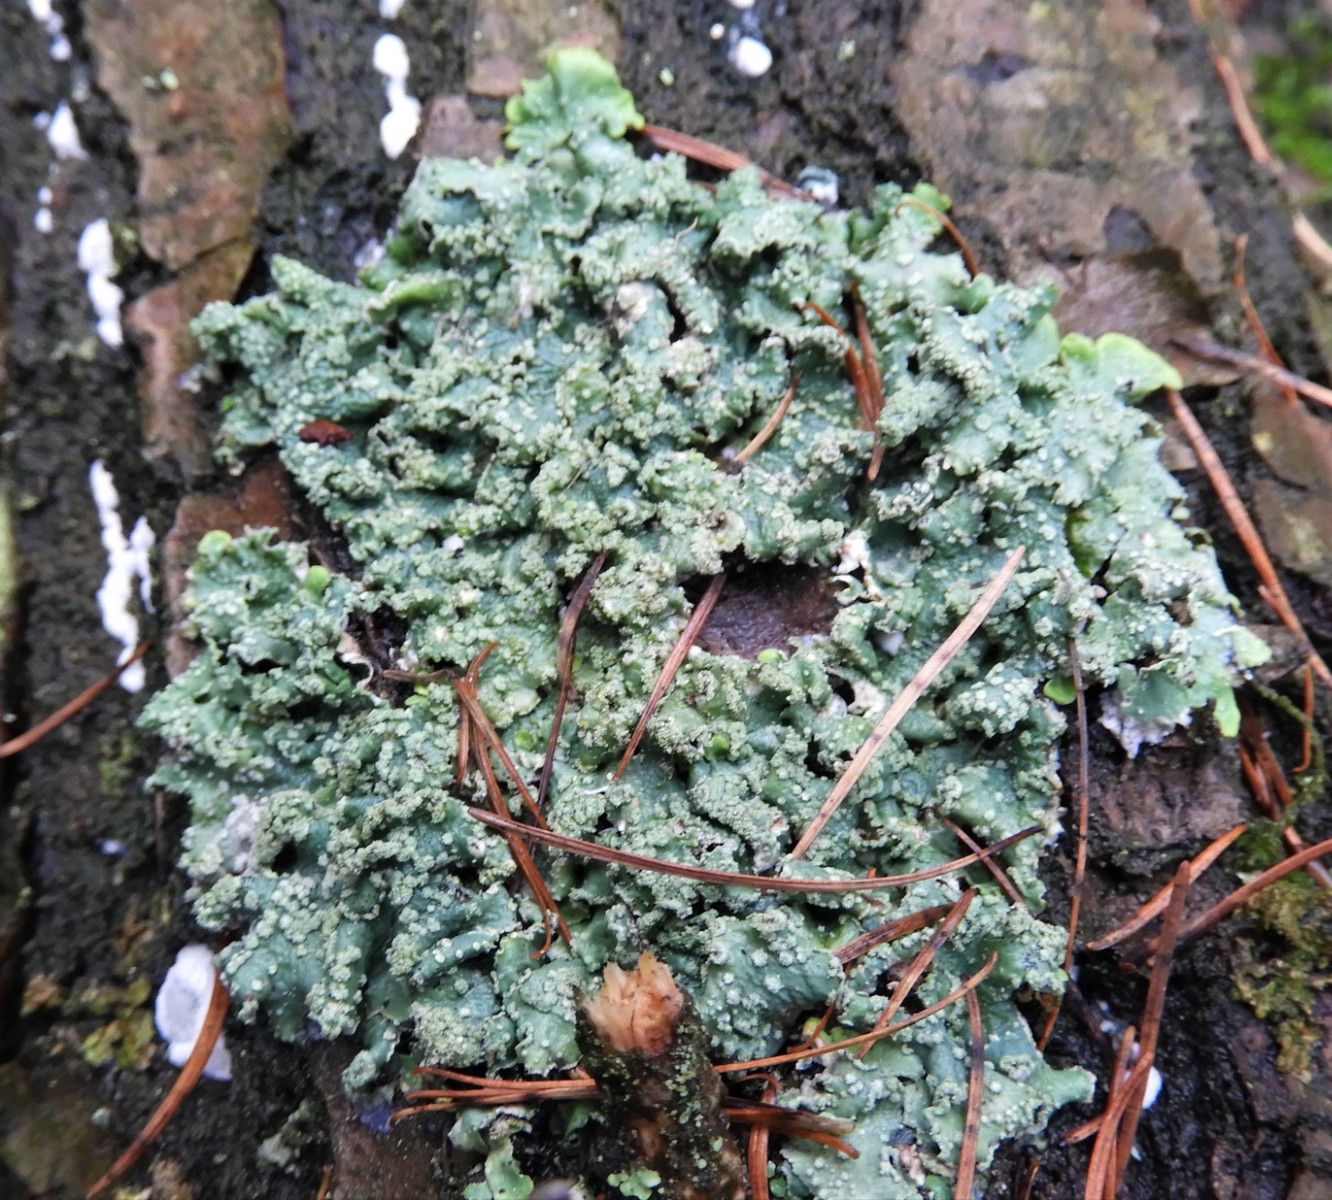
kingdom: Fungi
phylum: Ascomycota
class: Lecanoromycetes
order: Lecanorales
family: Parmeliaceae
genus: Punctelia
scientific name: Punctelia subrudecta
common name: punkt-skållav
